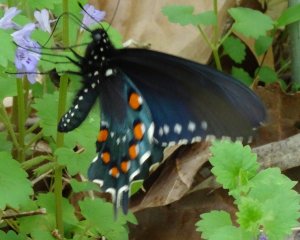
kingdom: Animalia
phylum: Arthropoda
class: Insecta
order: Lepidoptera
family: Papilionidae
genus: Battus
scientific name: Battus philenor
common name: Pipevine Swallowtail
